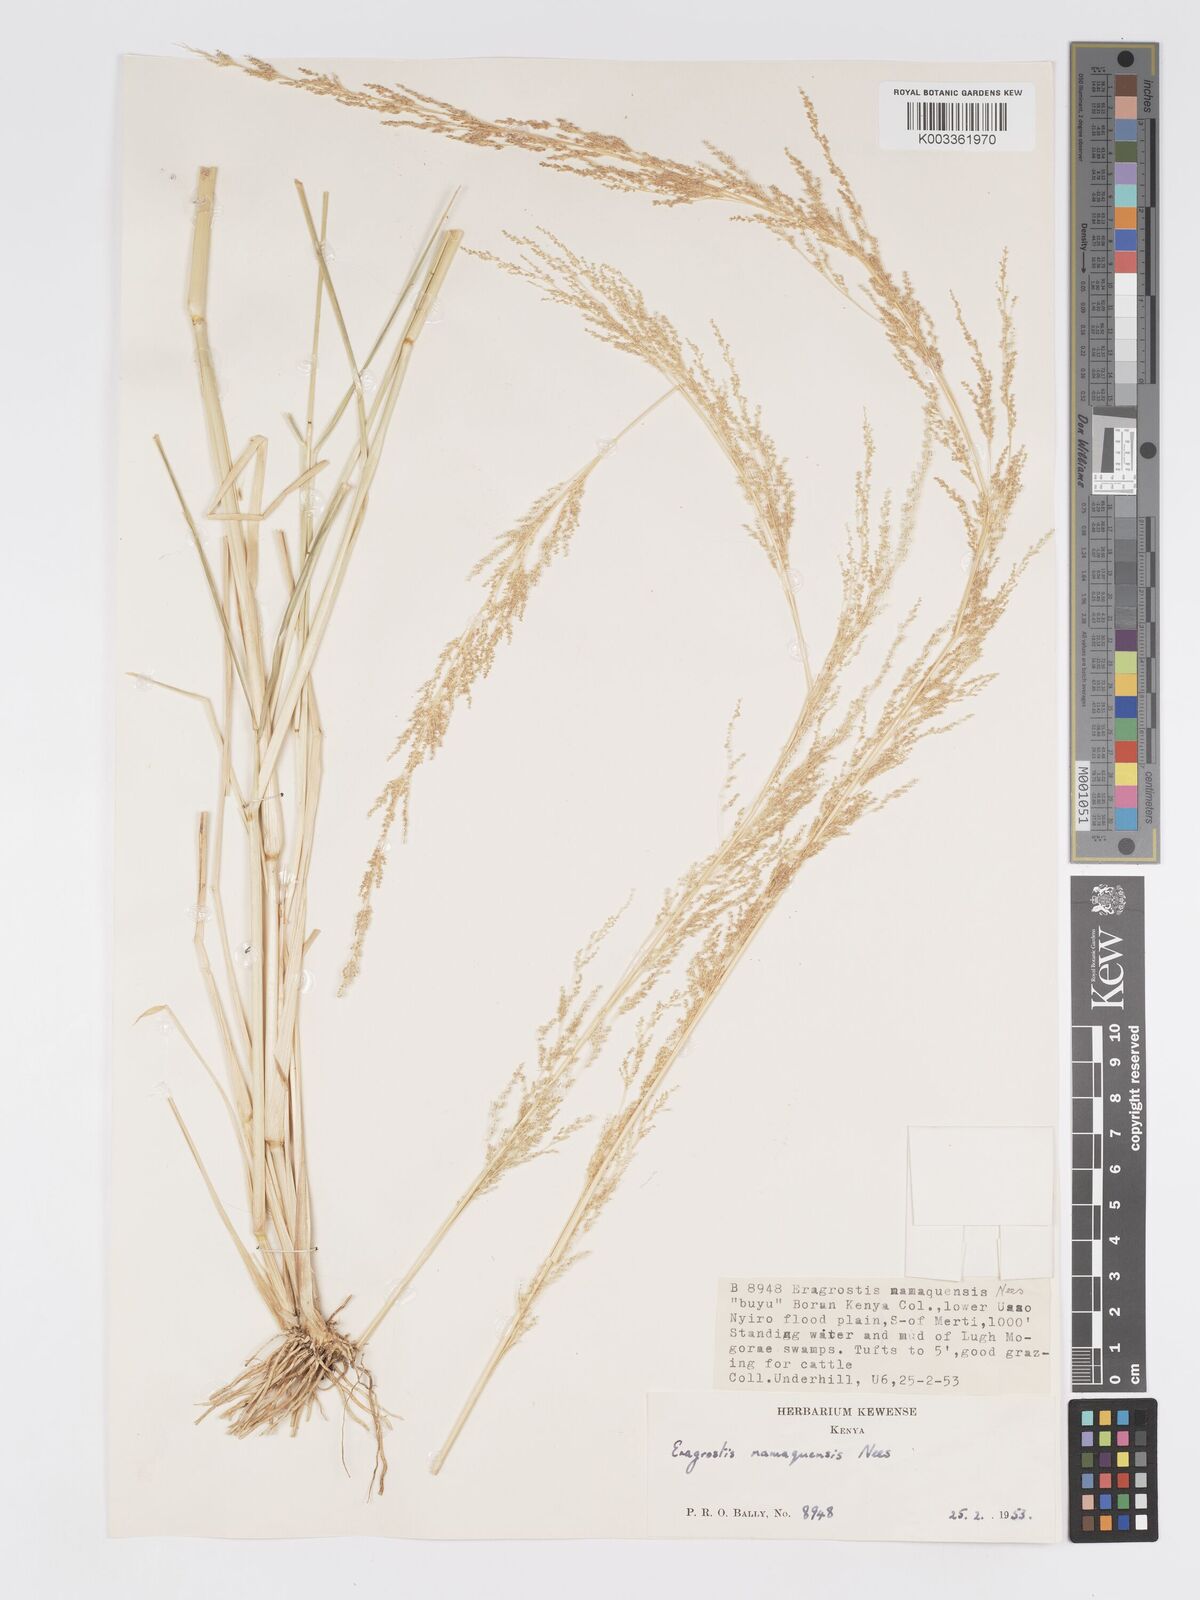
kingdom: Plantae
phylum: Tracheophyta
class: Liliopsida
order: Poales
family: Poaceae
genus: Eragrostis
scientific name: Eragrostis japonica
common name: Pond lovegrass
